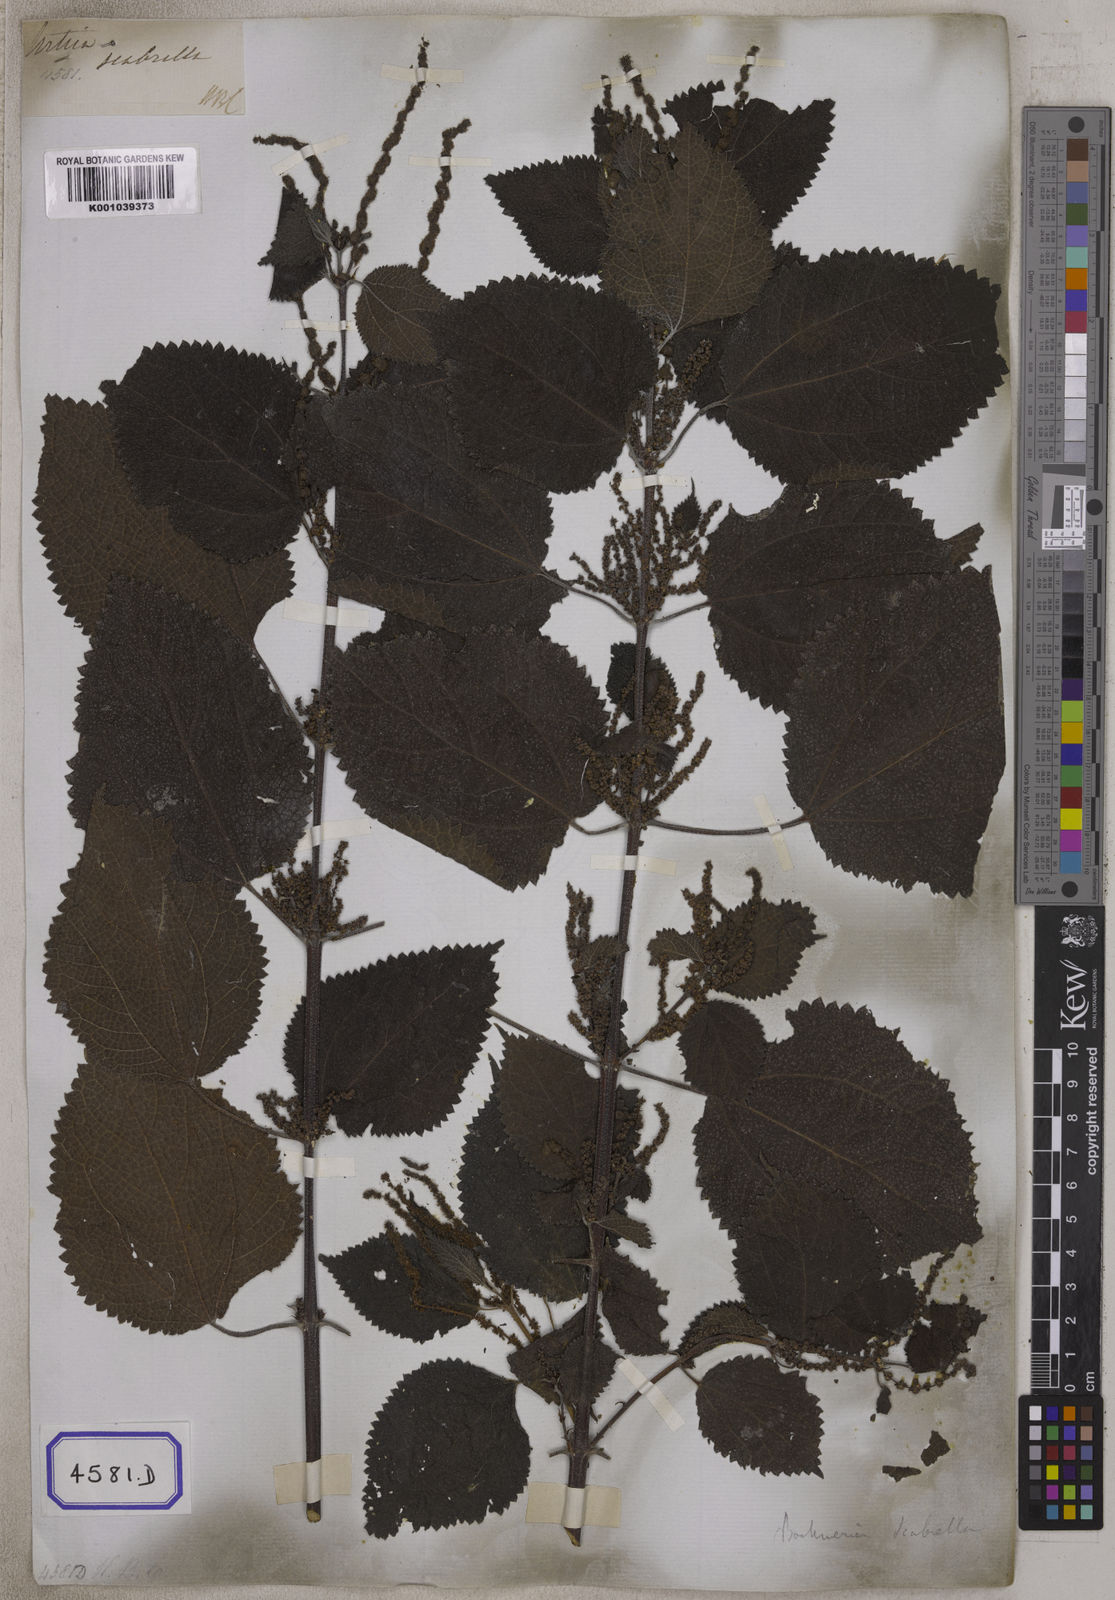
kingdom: Plantae
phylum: Tracheophyta
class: Magnoliopsida
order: Rosales
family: Urticaceae
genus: Boehmeria
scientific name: Boehmeria virgata
